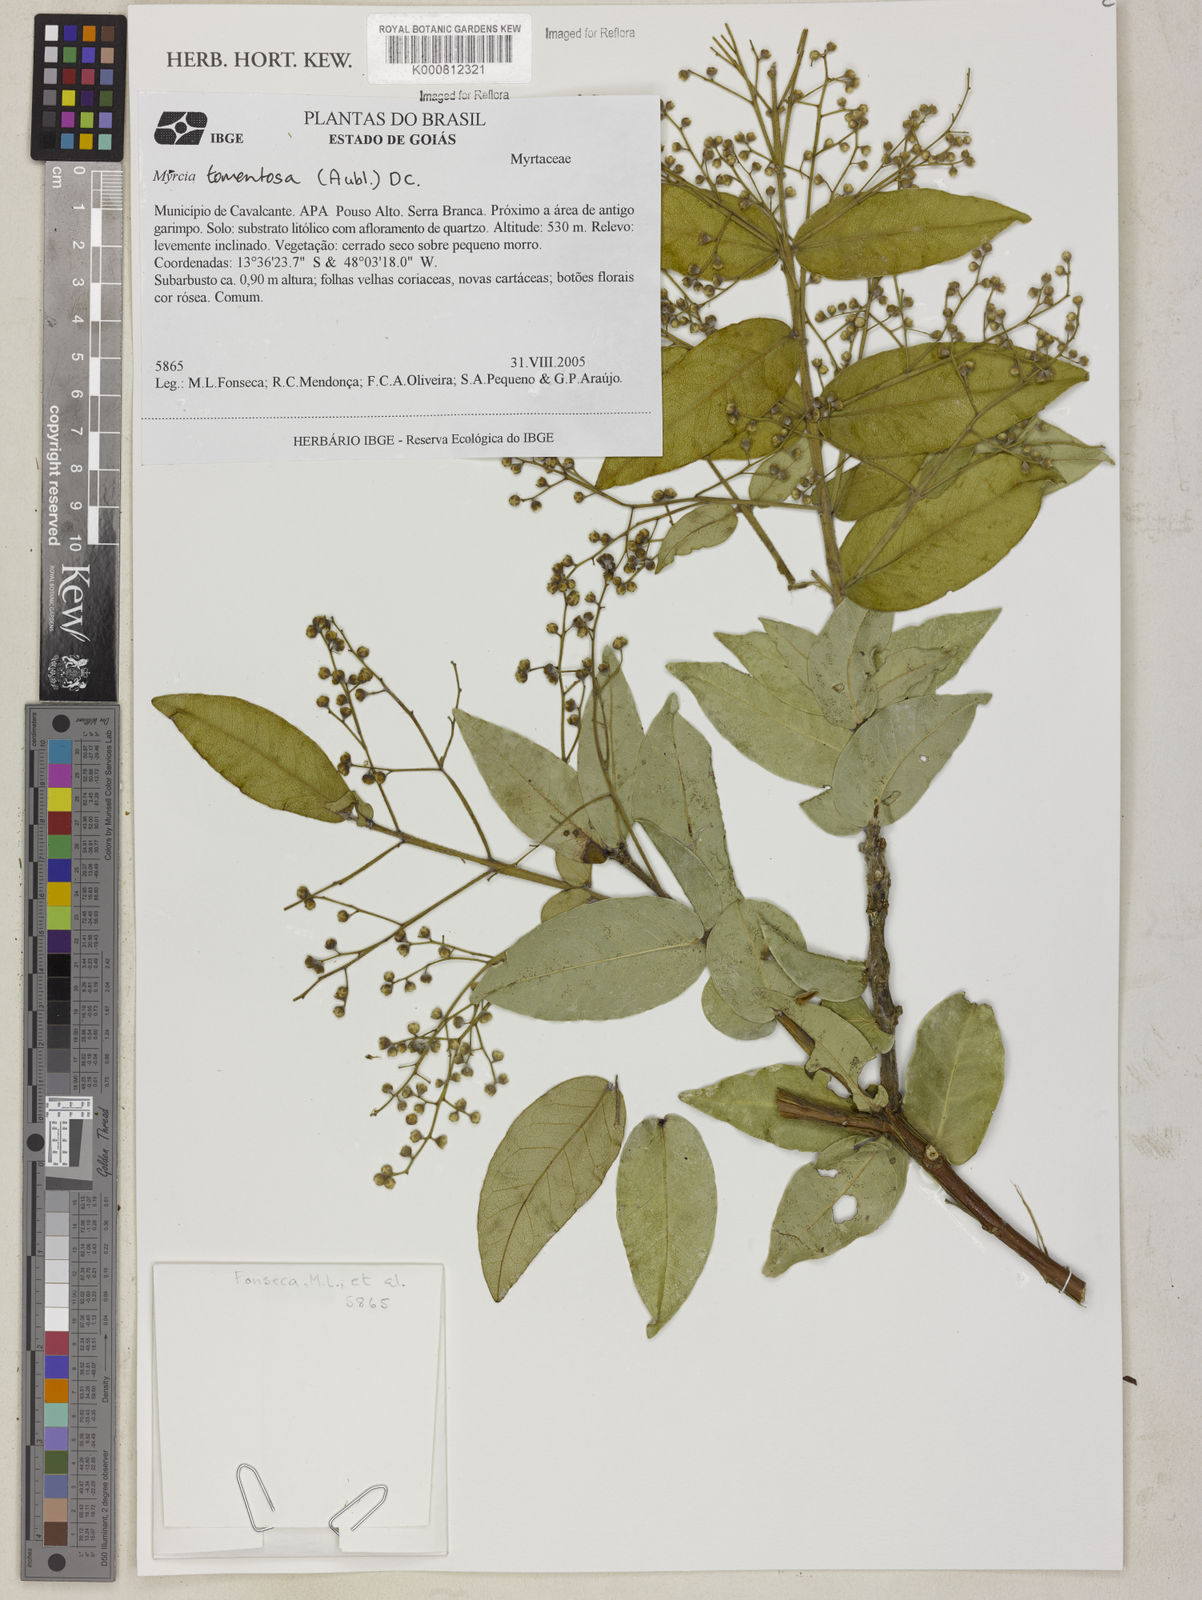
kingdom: Plantae
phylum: Tracheophyta
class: Magnoliopsida
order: Myrtales
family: Myrtaceae
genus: Myrcia
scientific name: Myrcia tomentosa
